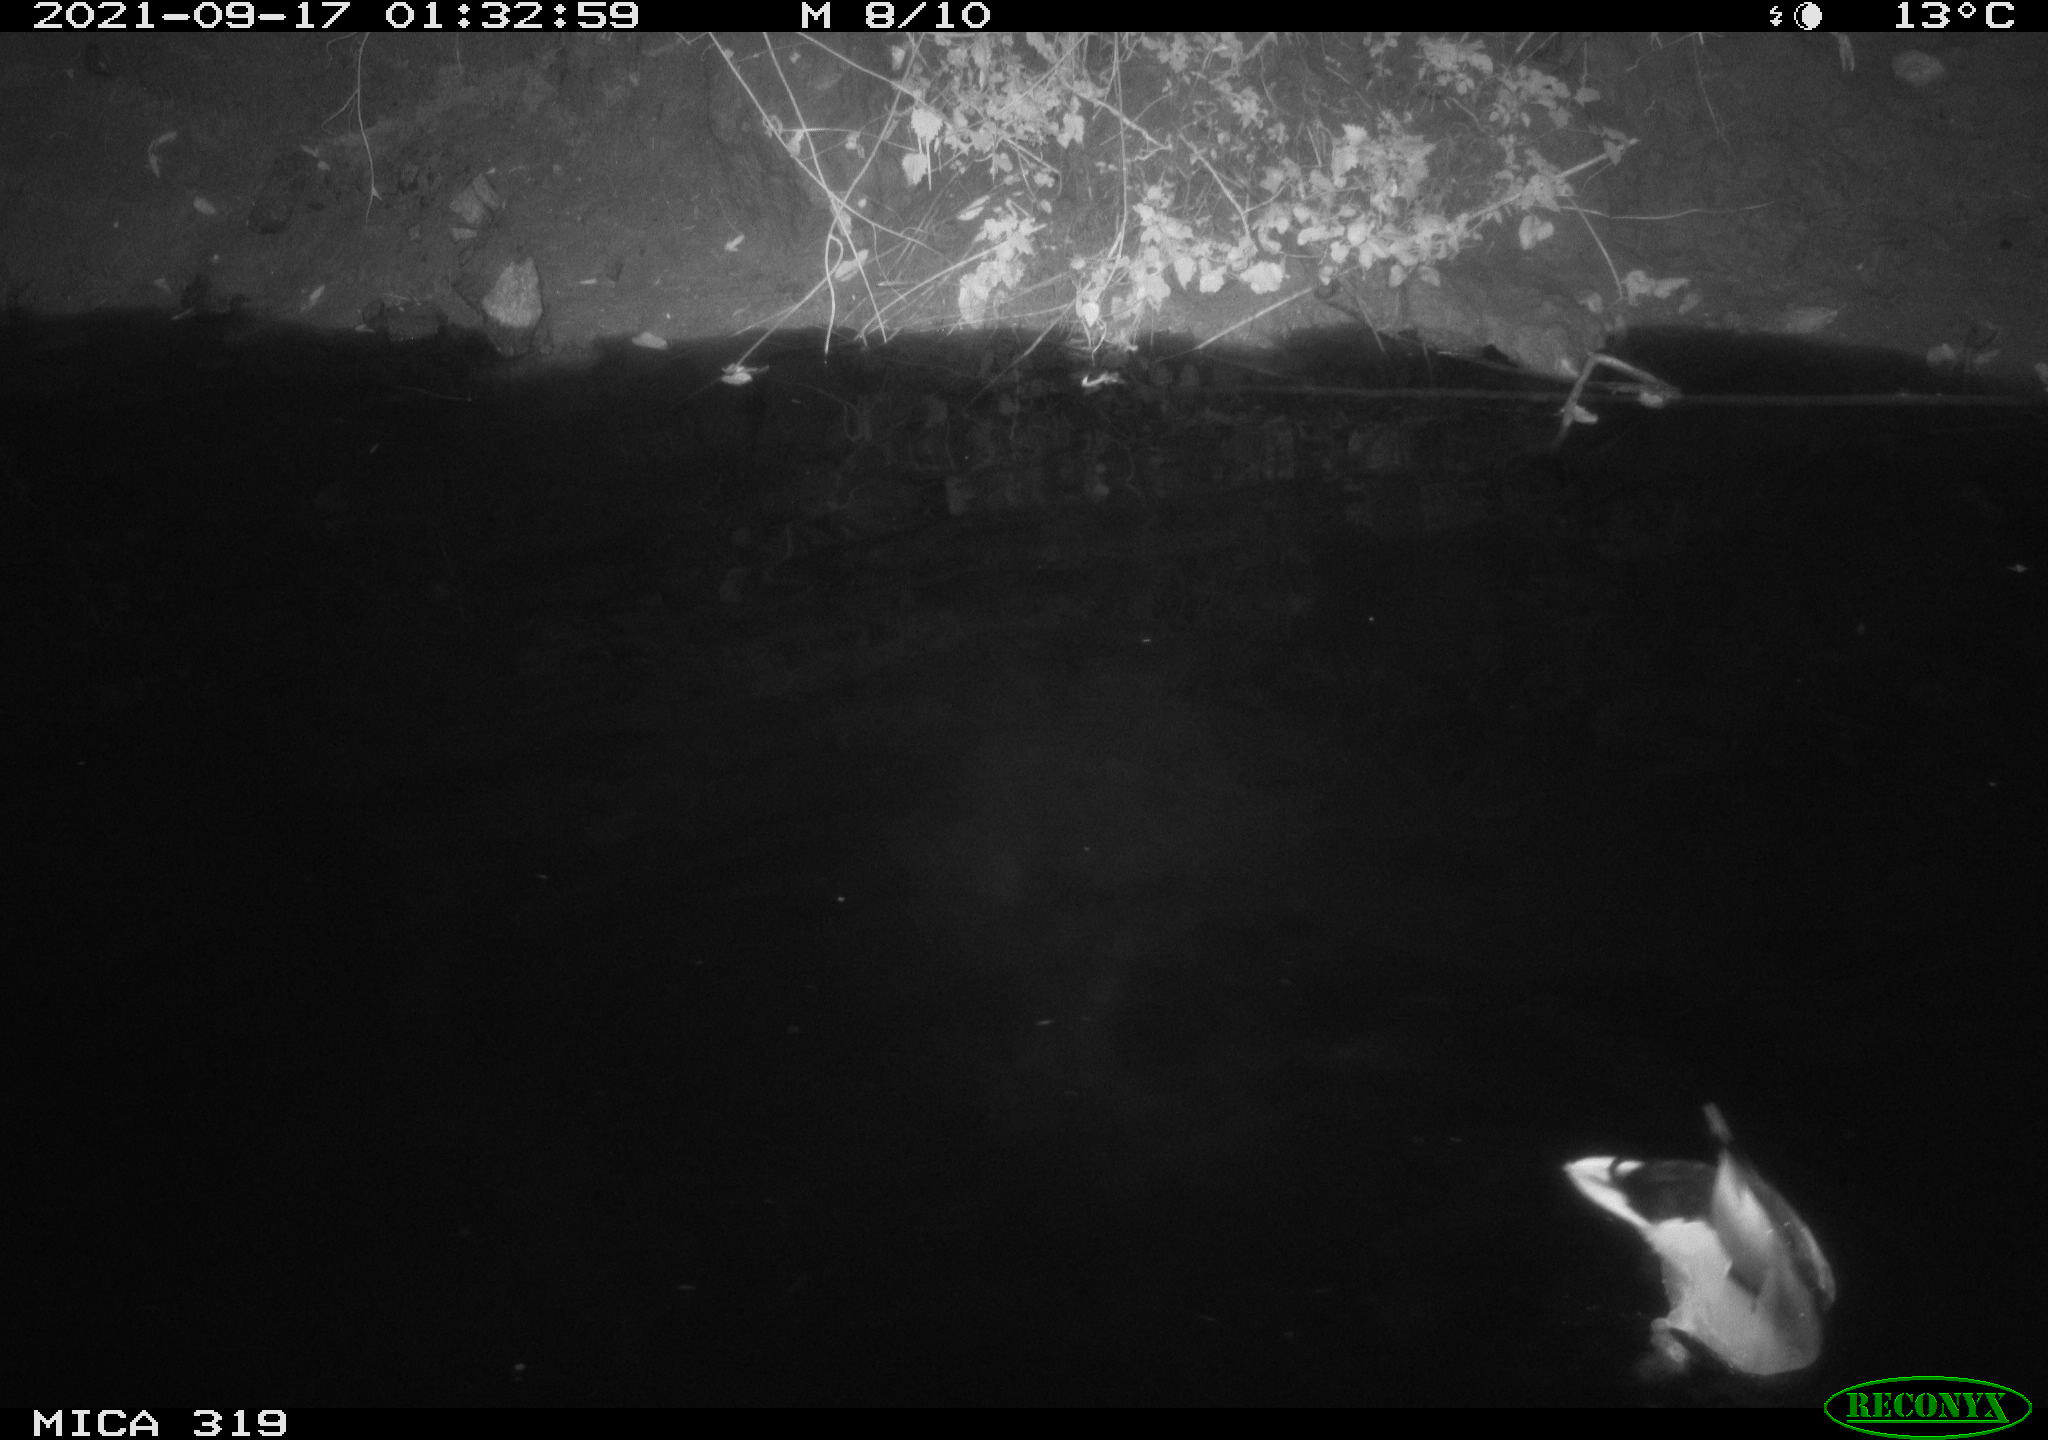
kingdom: Animalia
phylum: Chordata
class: Aves
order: Anseriformes
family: Anatidae
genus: Anas
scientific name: Anas platyrhynchos
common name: Mallard
